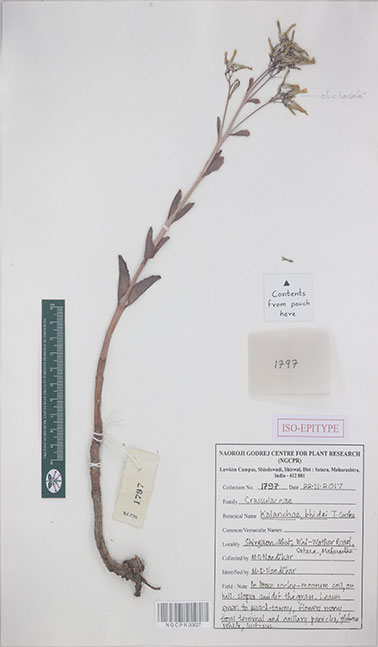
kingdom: Plantae
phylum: Tracheophyta
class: Magnoliopsida
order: Saxifragales
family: Crassulaceae
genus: Kalanchoe
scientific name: Kalanchoe bhidei
